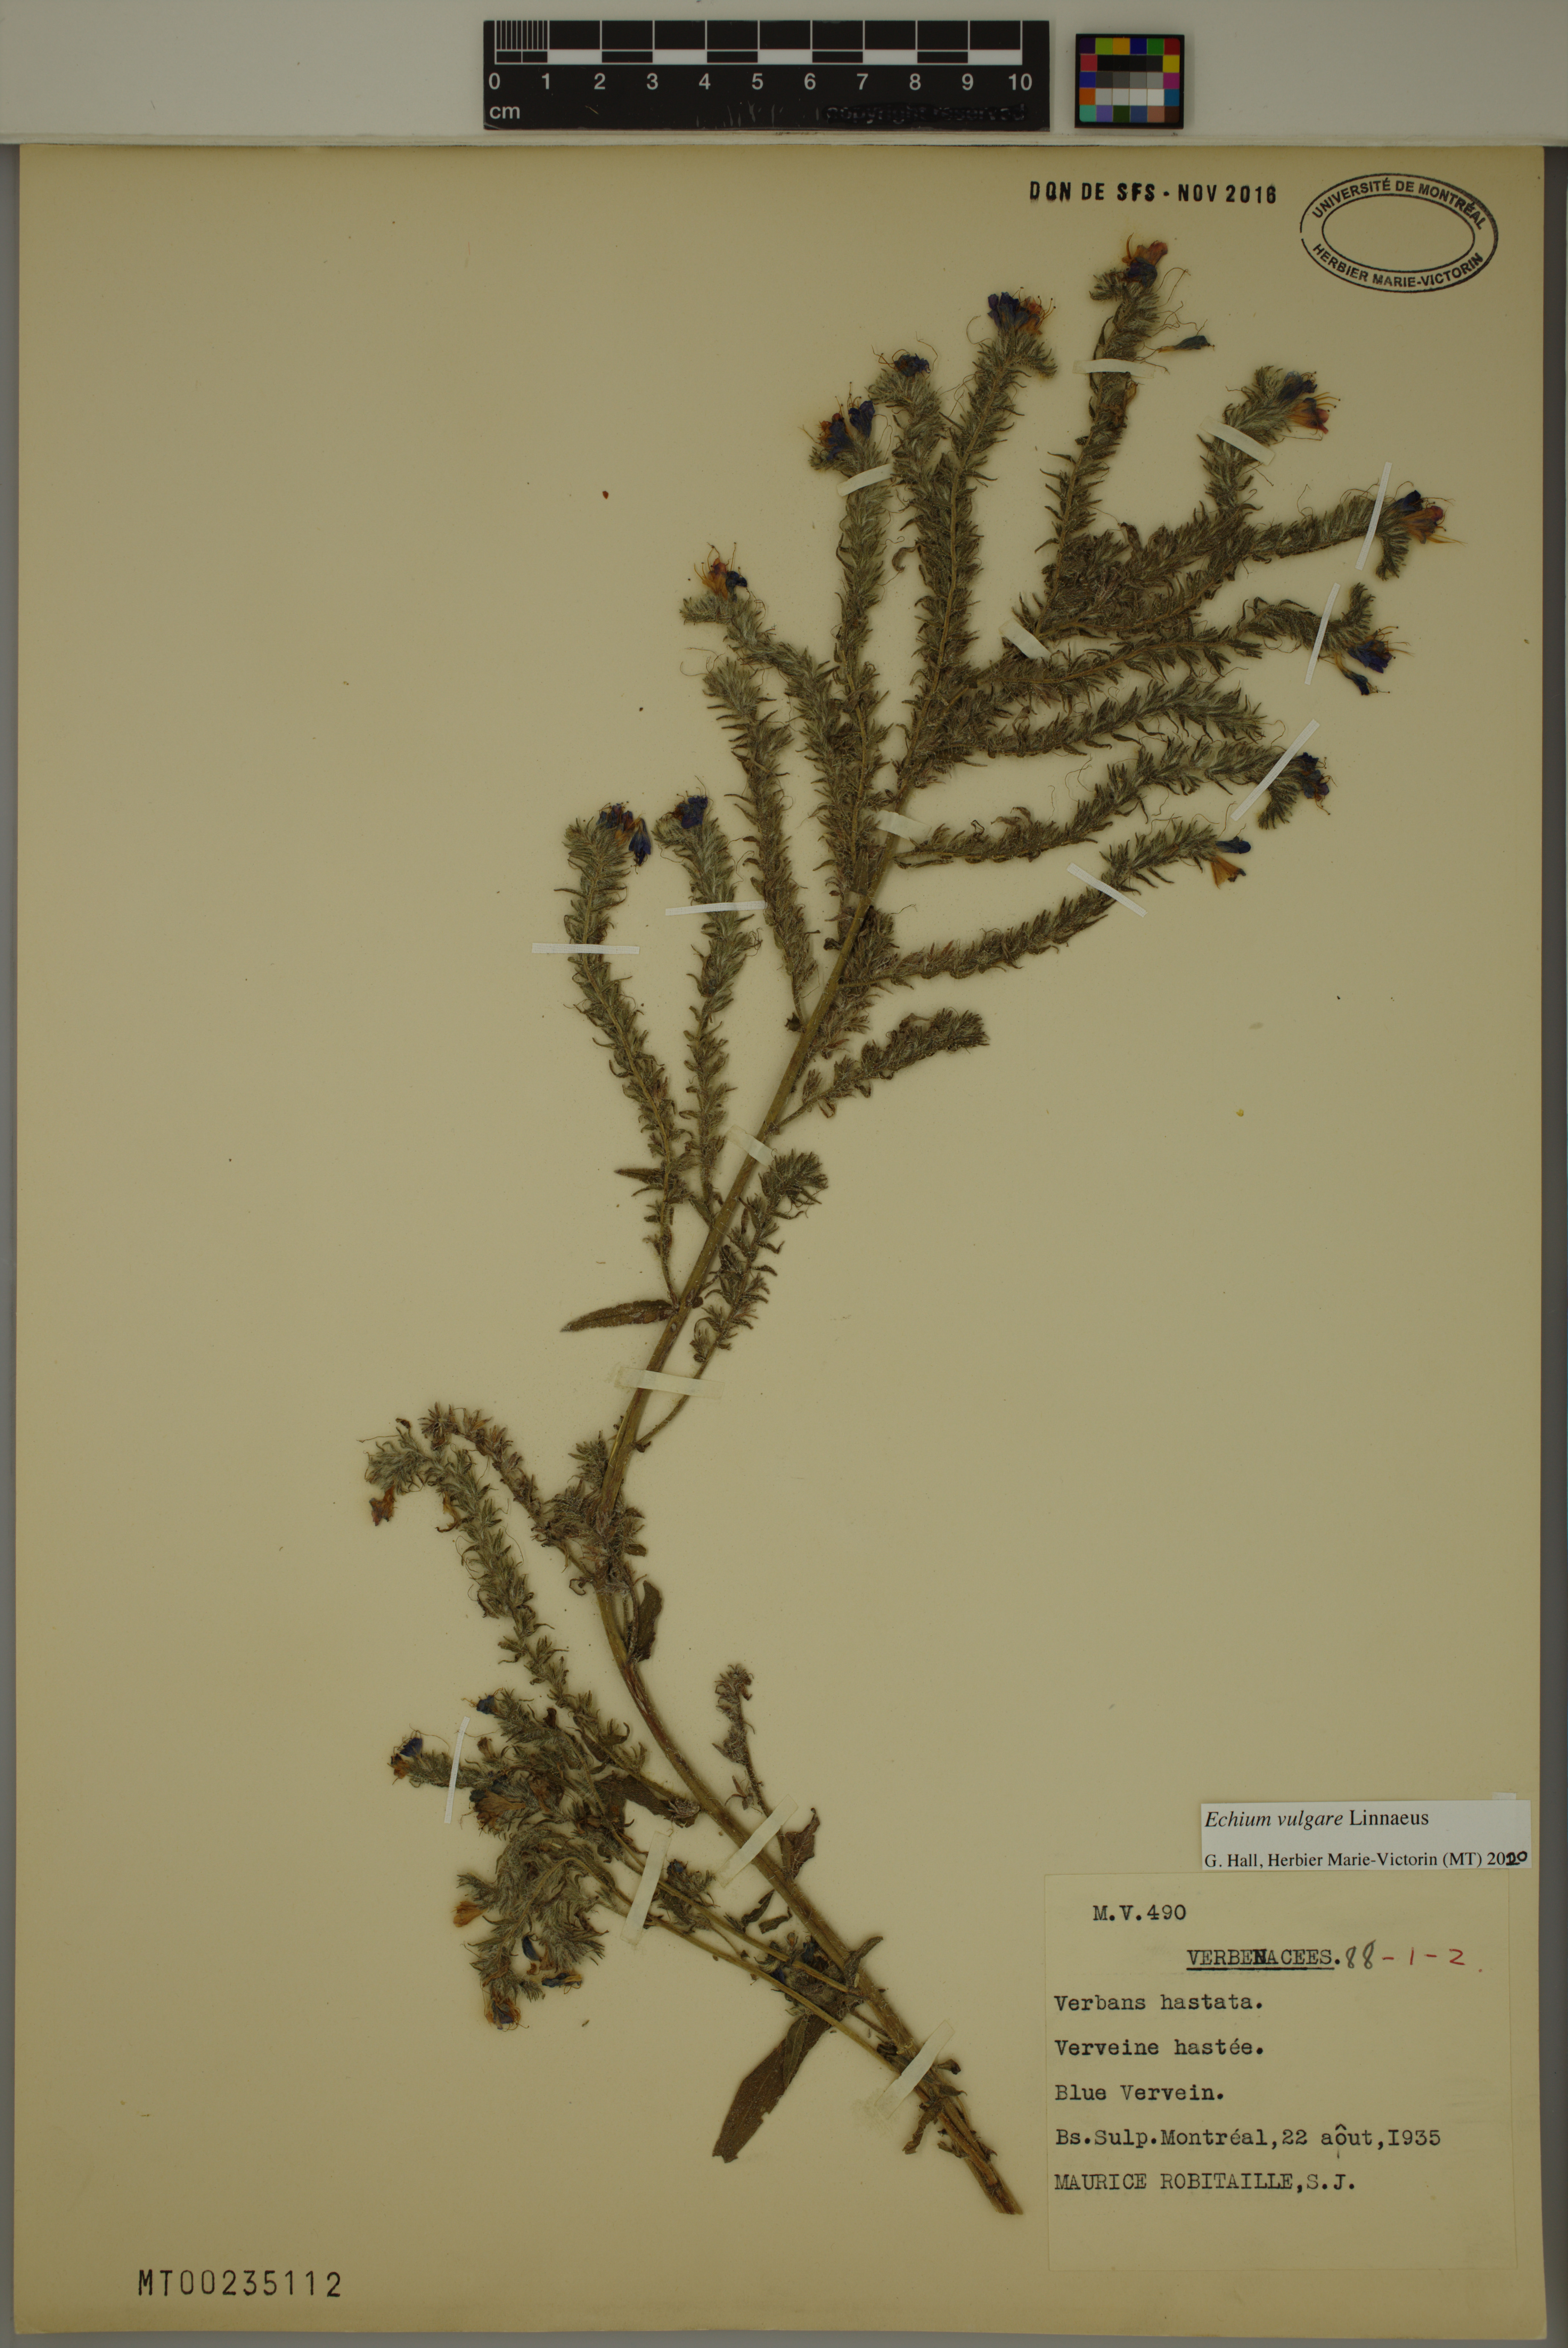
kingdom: Plantae
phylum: Tracheophyta
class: Magnoliopsida
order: Boraginales
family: Boraginaceae
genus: Echium
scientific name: Echium vulgare
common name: Common viper's bugloss
